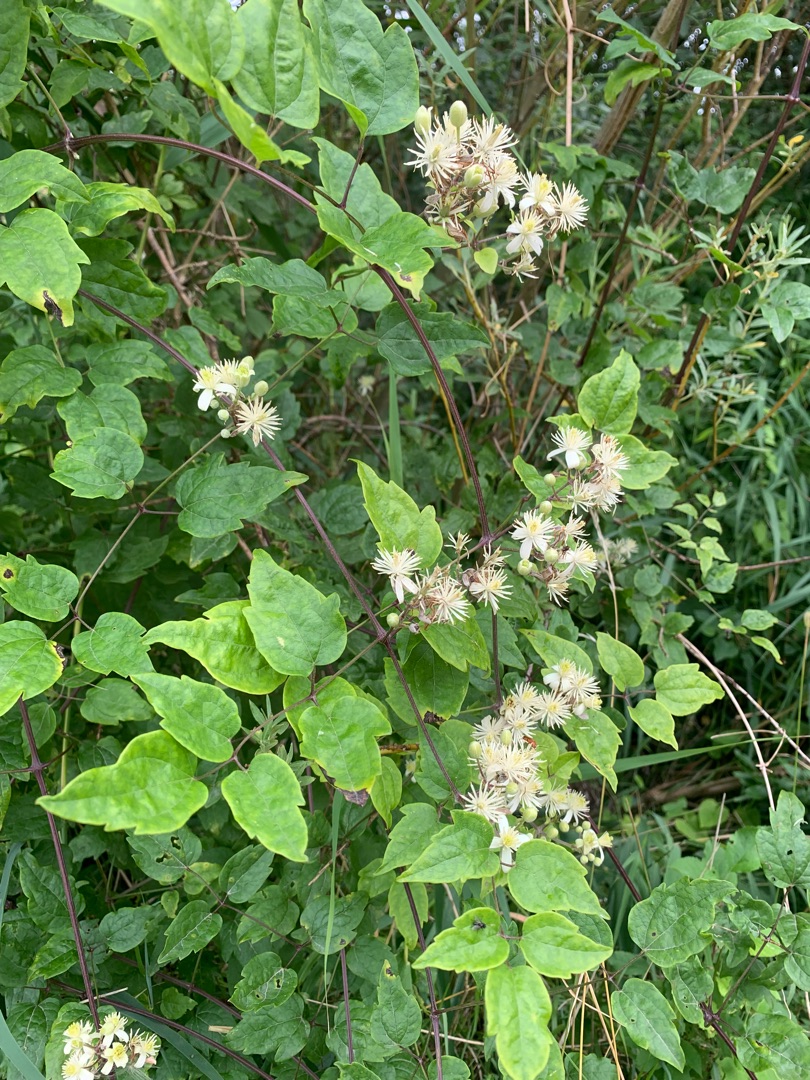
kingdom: Plantae
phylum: Tracheophyta
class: Magnoliopsida
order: Ranunculales
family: Ranunculaceae
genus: Clematis
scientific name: Clematis vitalba
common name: Skovranke
